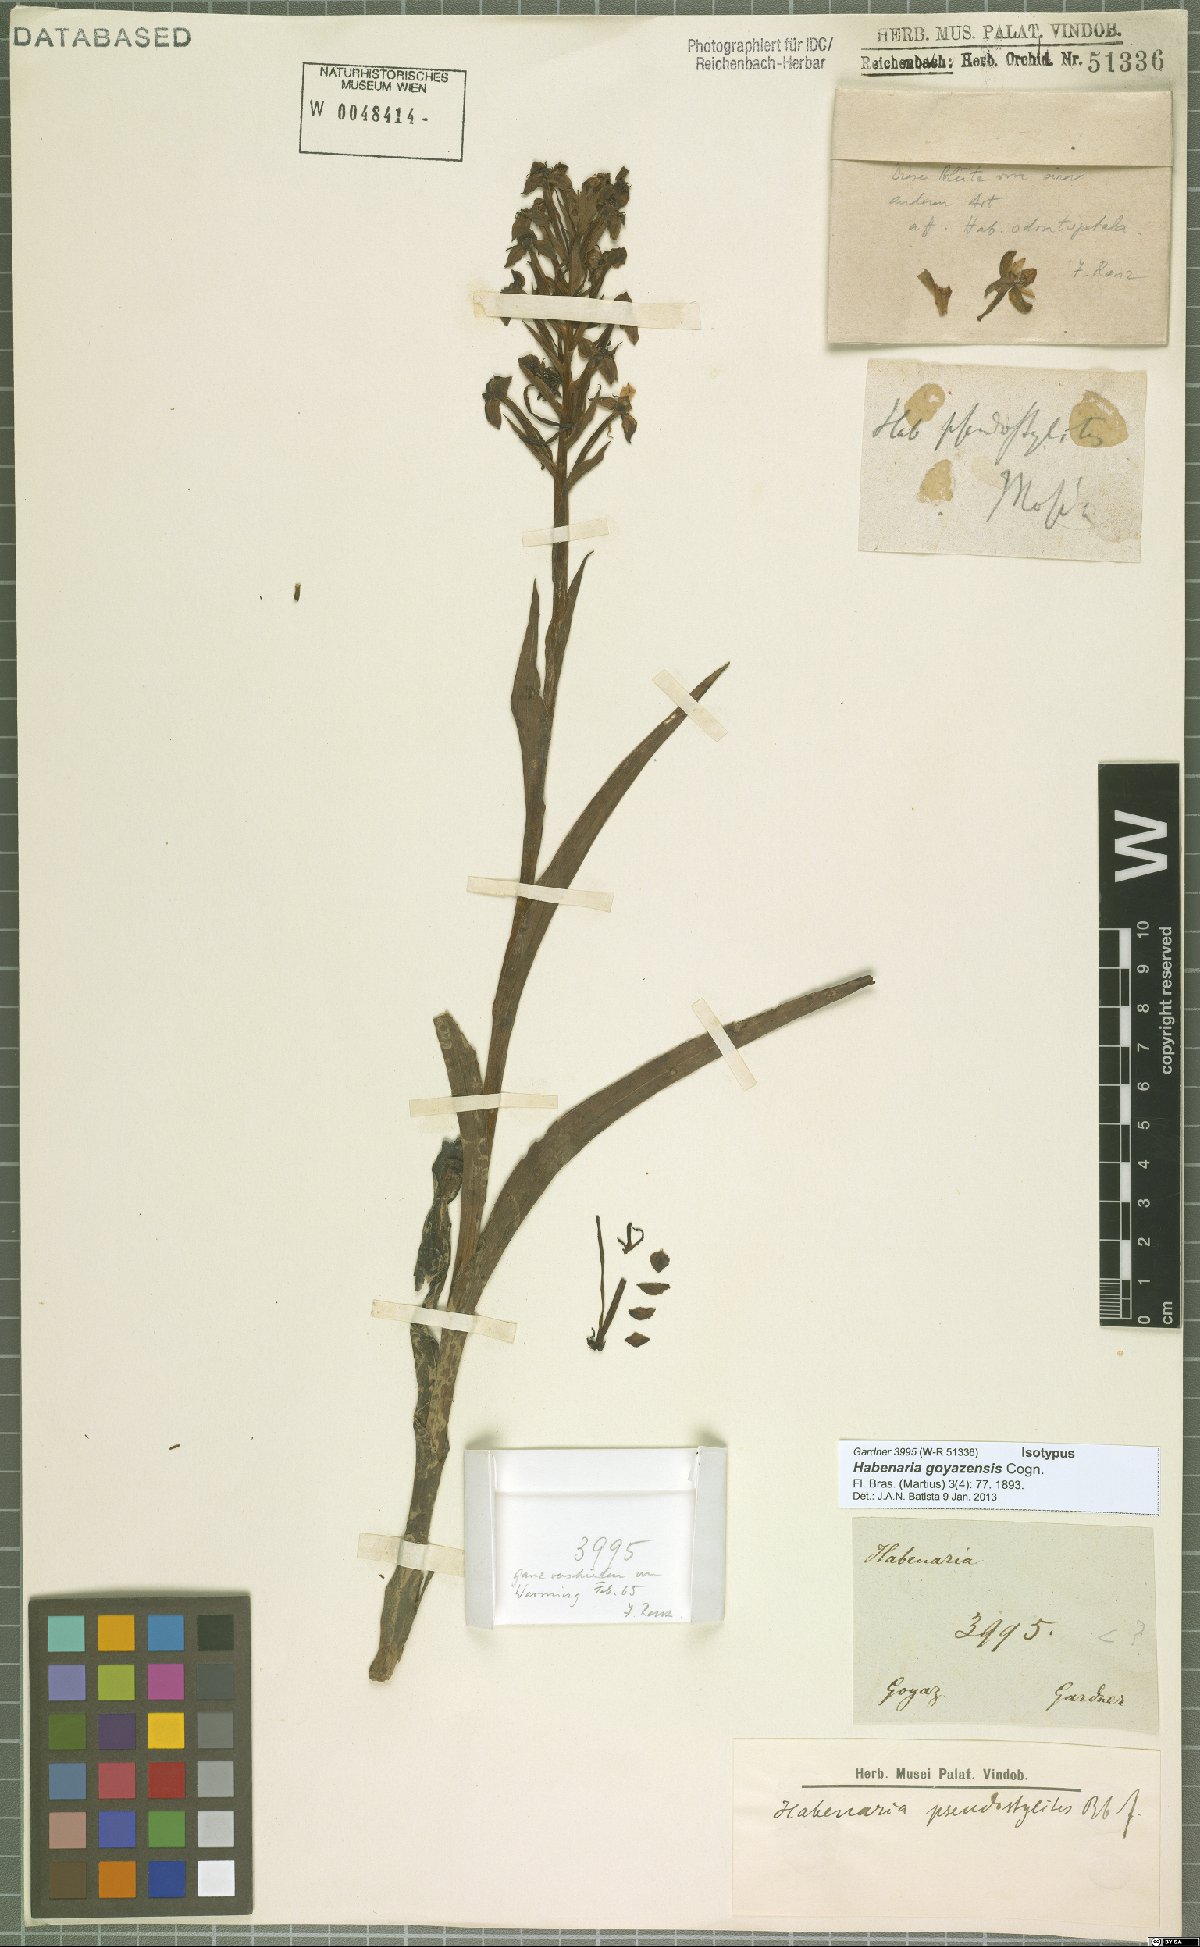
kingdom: Plantae
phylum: Tracheophyta
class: Liliopsida
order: Asparagales
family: Orchidaceae
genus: Habenaria
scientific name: Habenaria goyazensis
